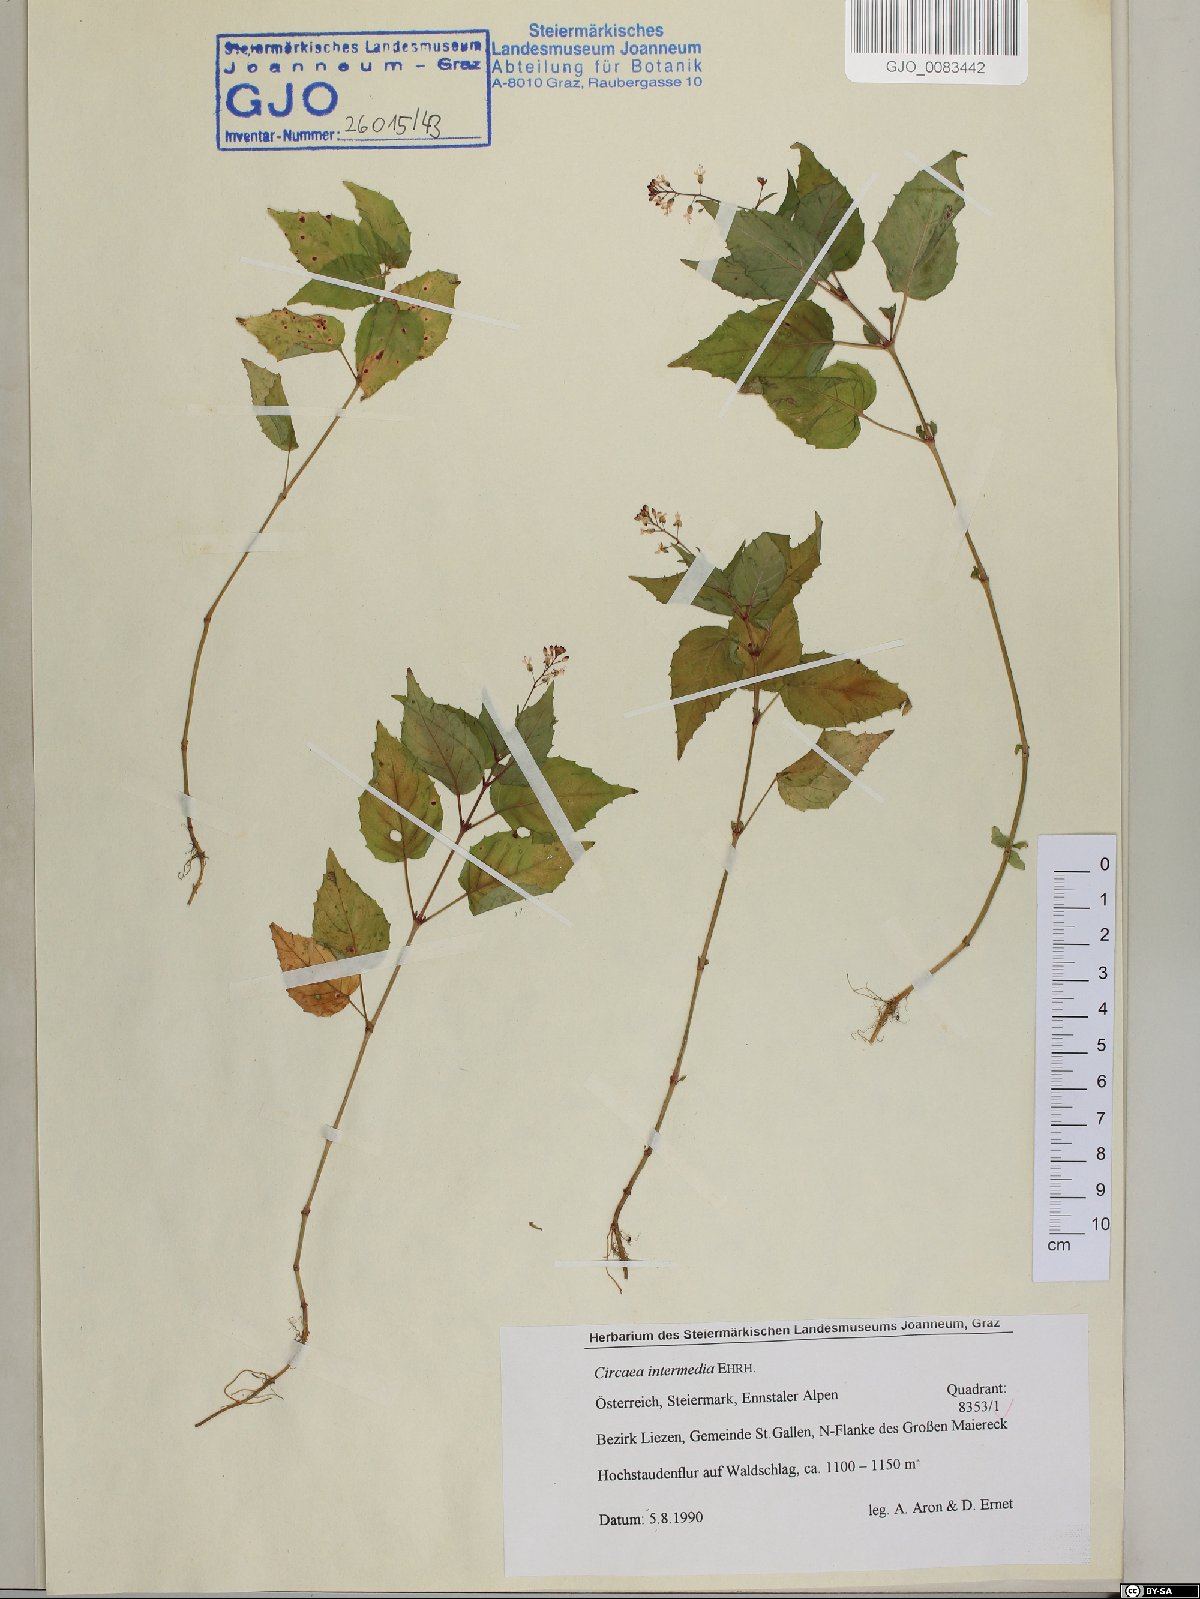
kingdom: Plantae
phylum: Tracheophyta
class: Magnoliopsida
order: Myrtales
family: Onagraceae
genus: Circaea
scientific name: Circaea intermedia
